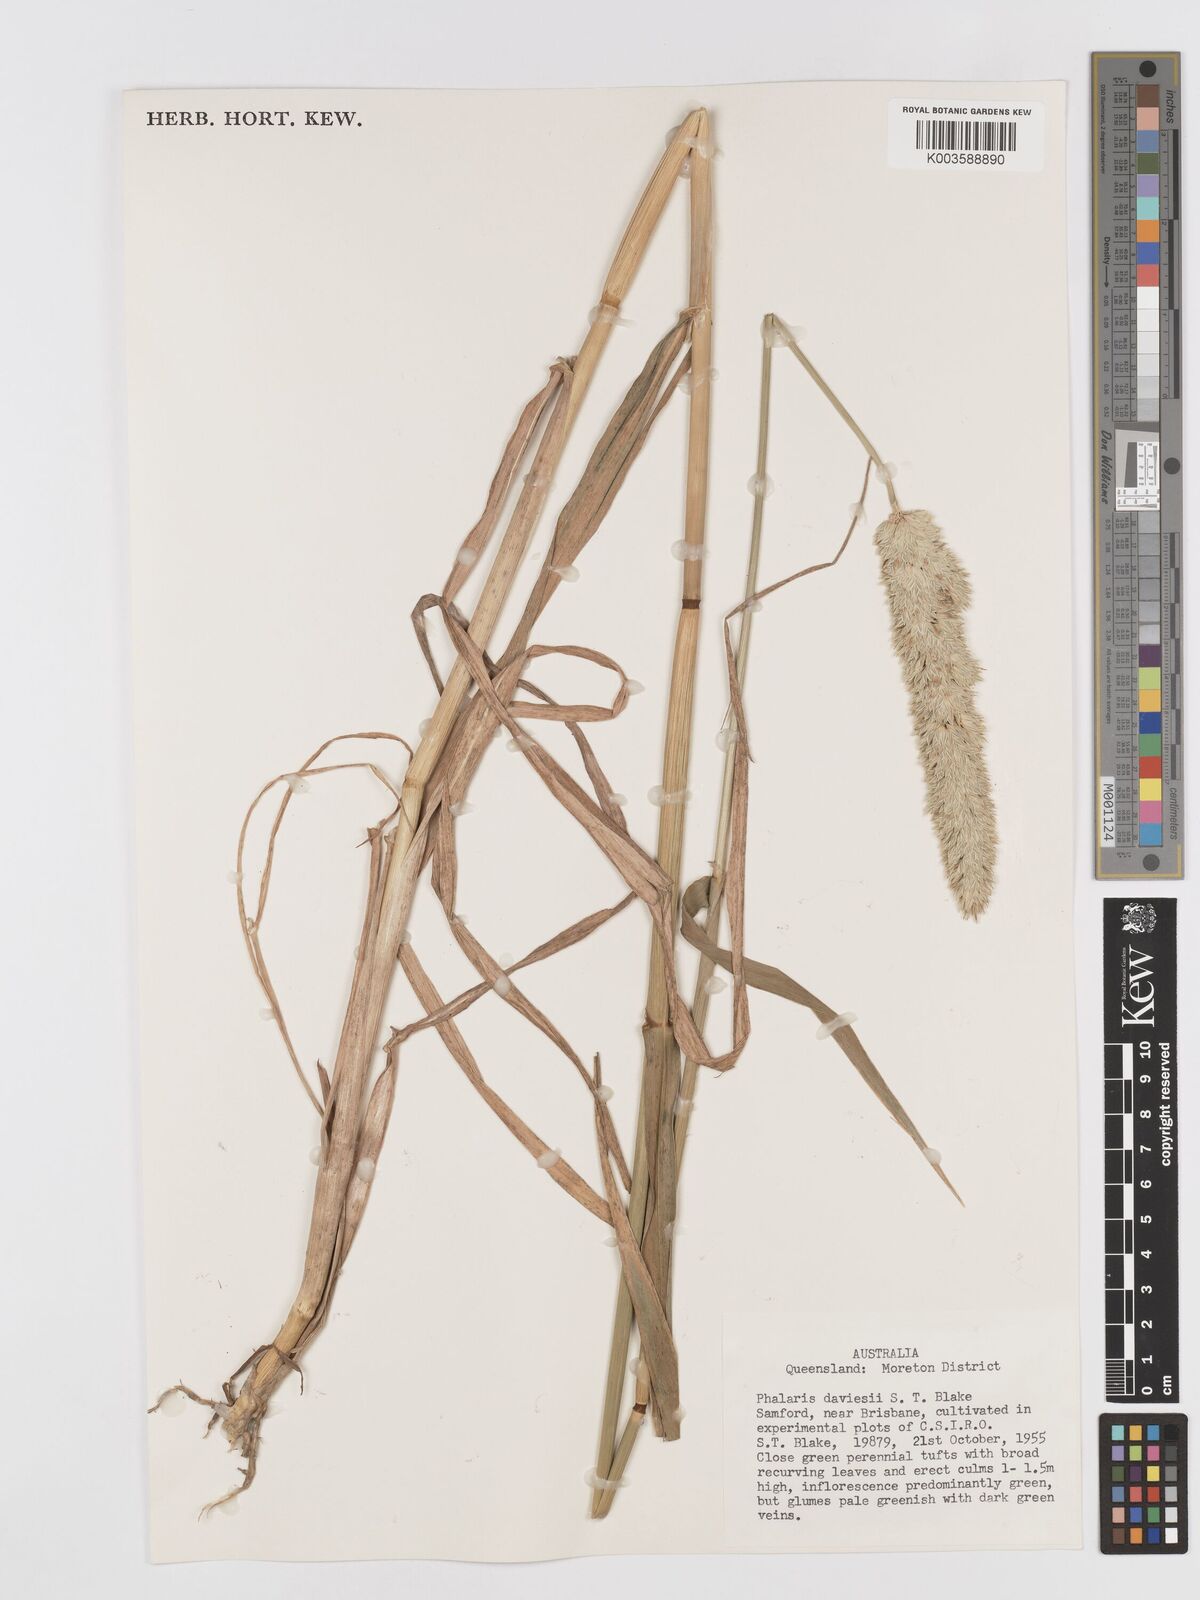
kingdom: Plantae
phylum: Tracheophyta
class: Liliopsida
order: Poales
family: Poaceae
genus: Phalaris
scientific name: Phalaris daviesii
